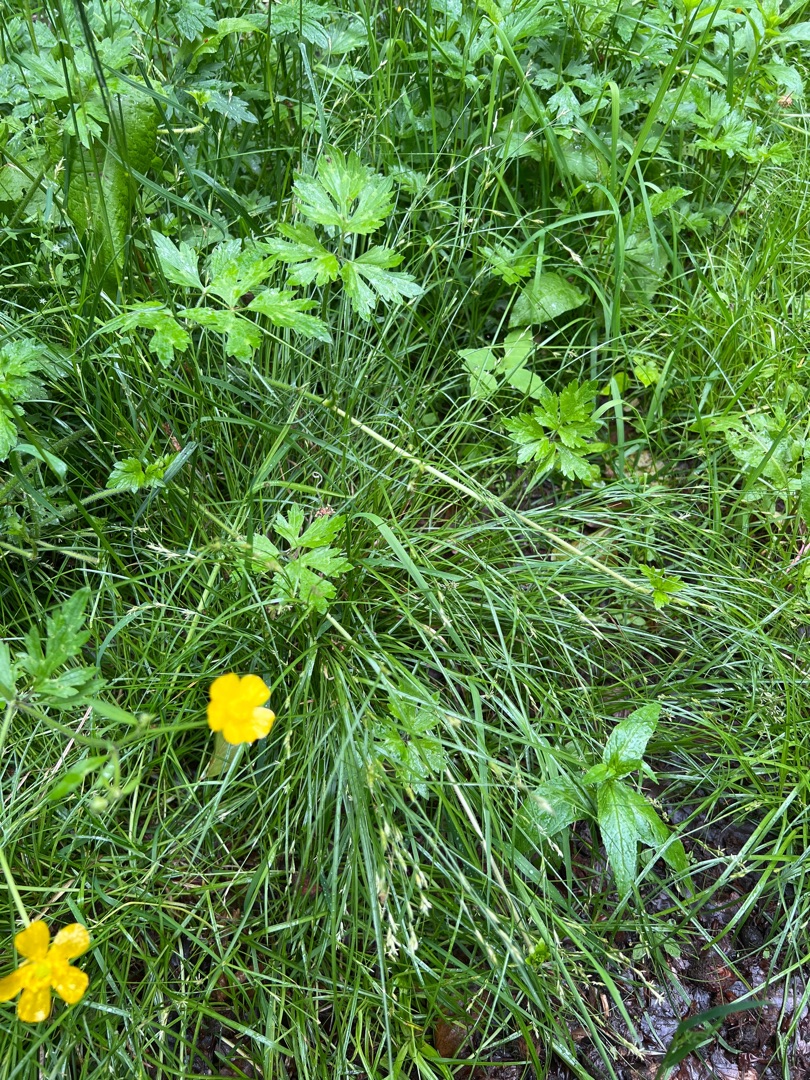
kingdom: Plantae
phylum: Tracheophyta
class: Liliopsida
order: Poales
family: Cyperaceae
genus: Carex
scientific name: Carex remota
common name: Akselblomstret star
